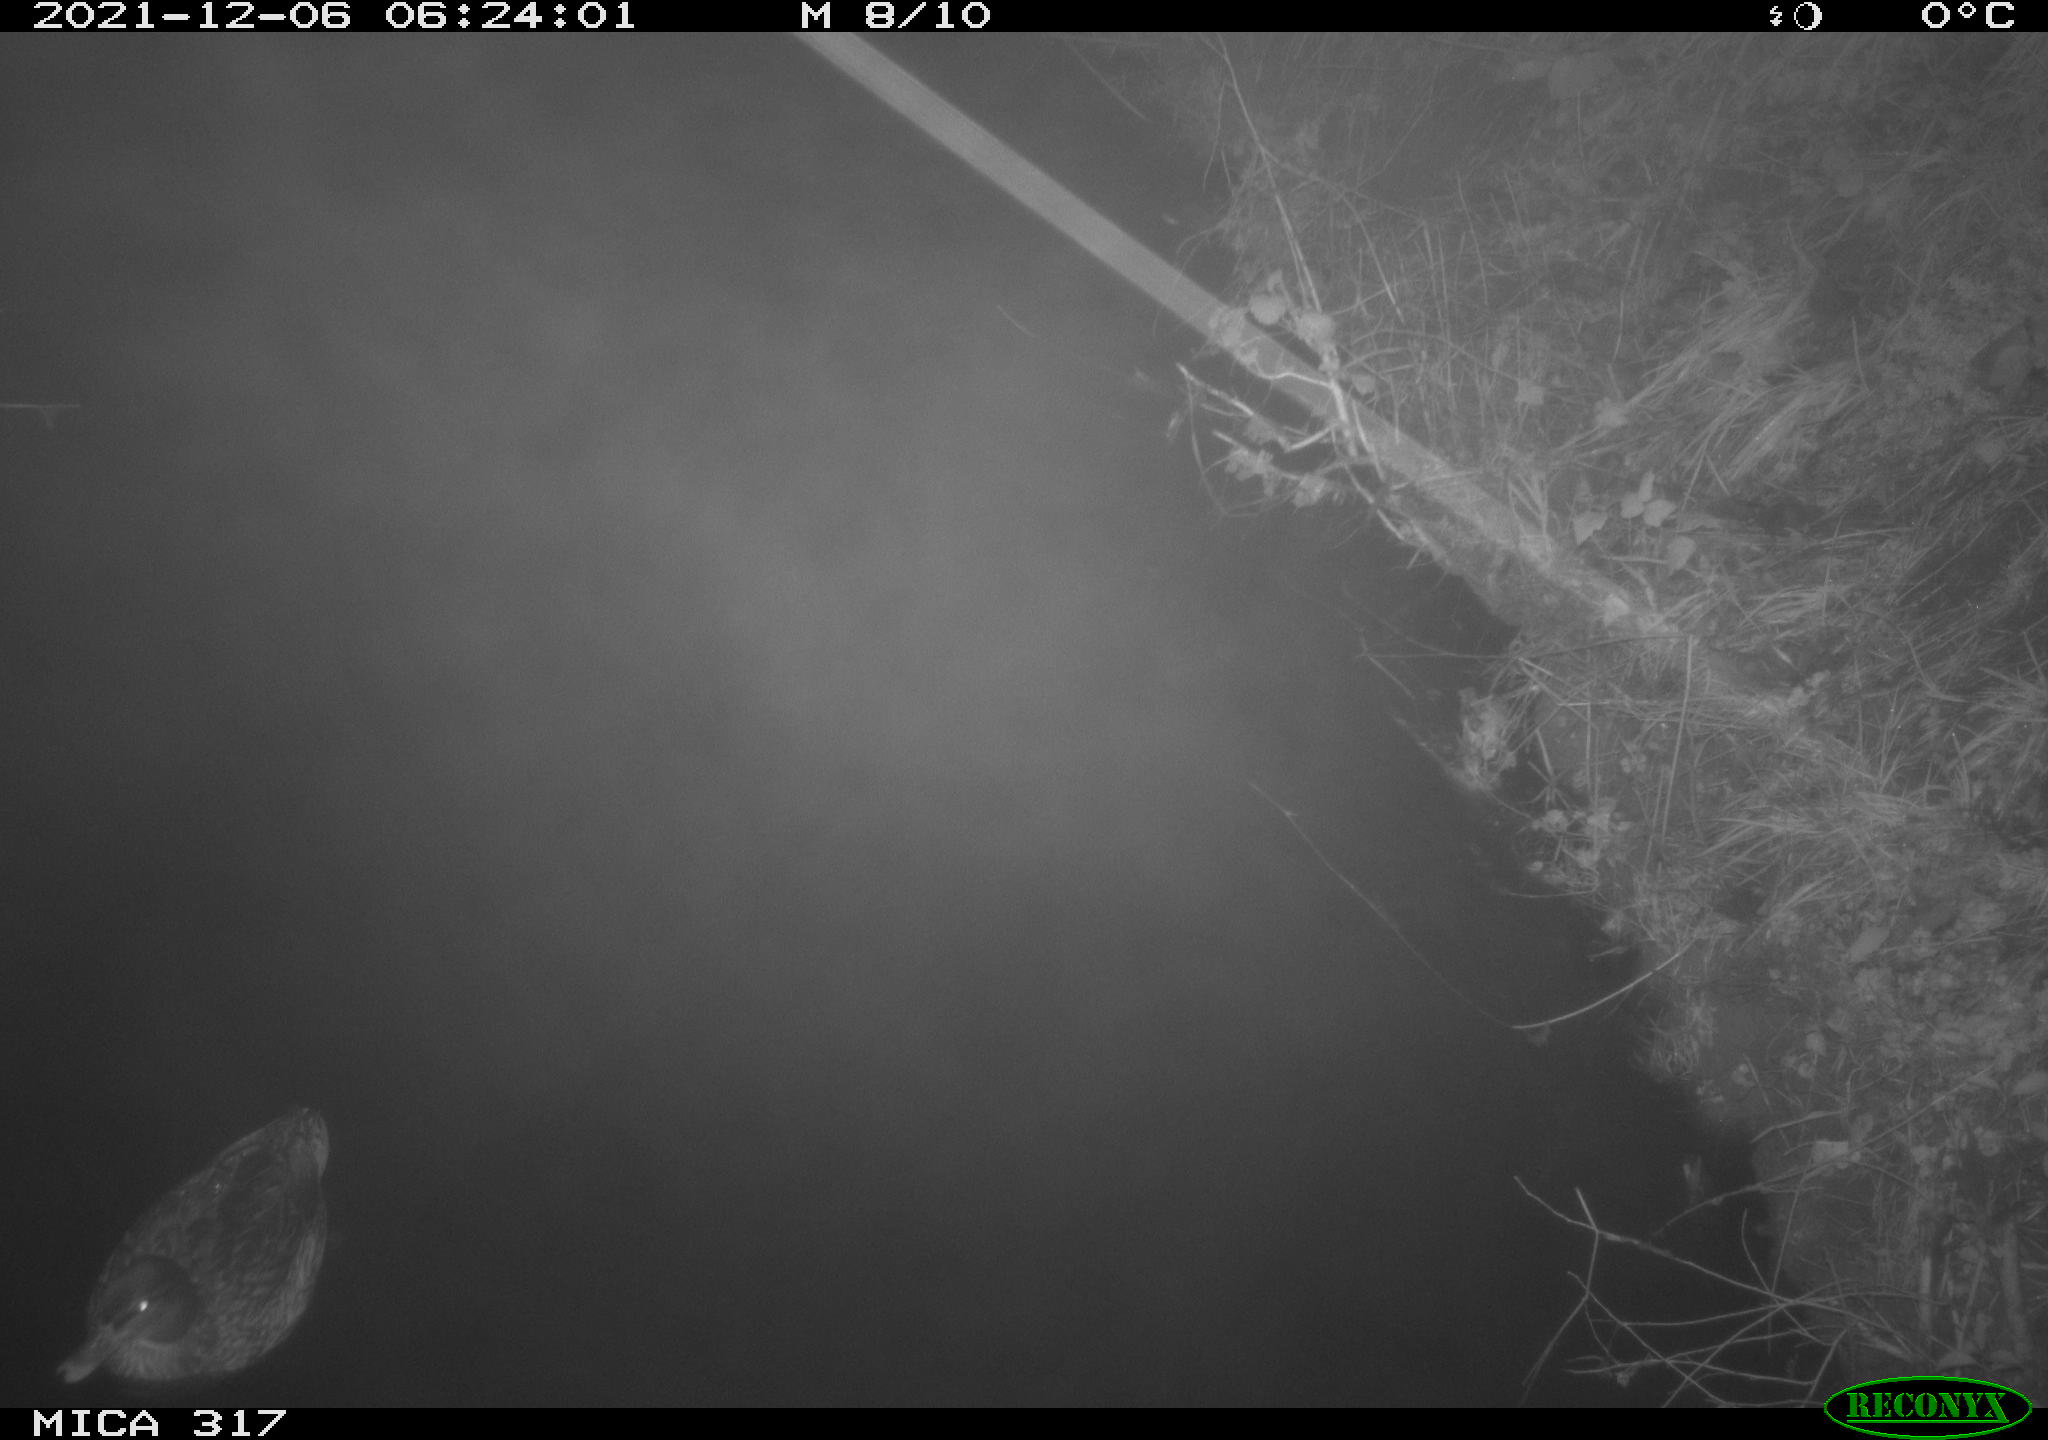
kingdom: Animalia
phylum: Chordata
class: Aves
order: Anseriformes
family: Anatidae
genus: Anas
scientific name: Anas platyrhynchos
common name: Mallard
